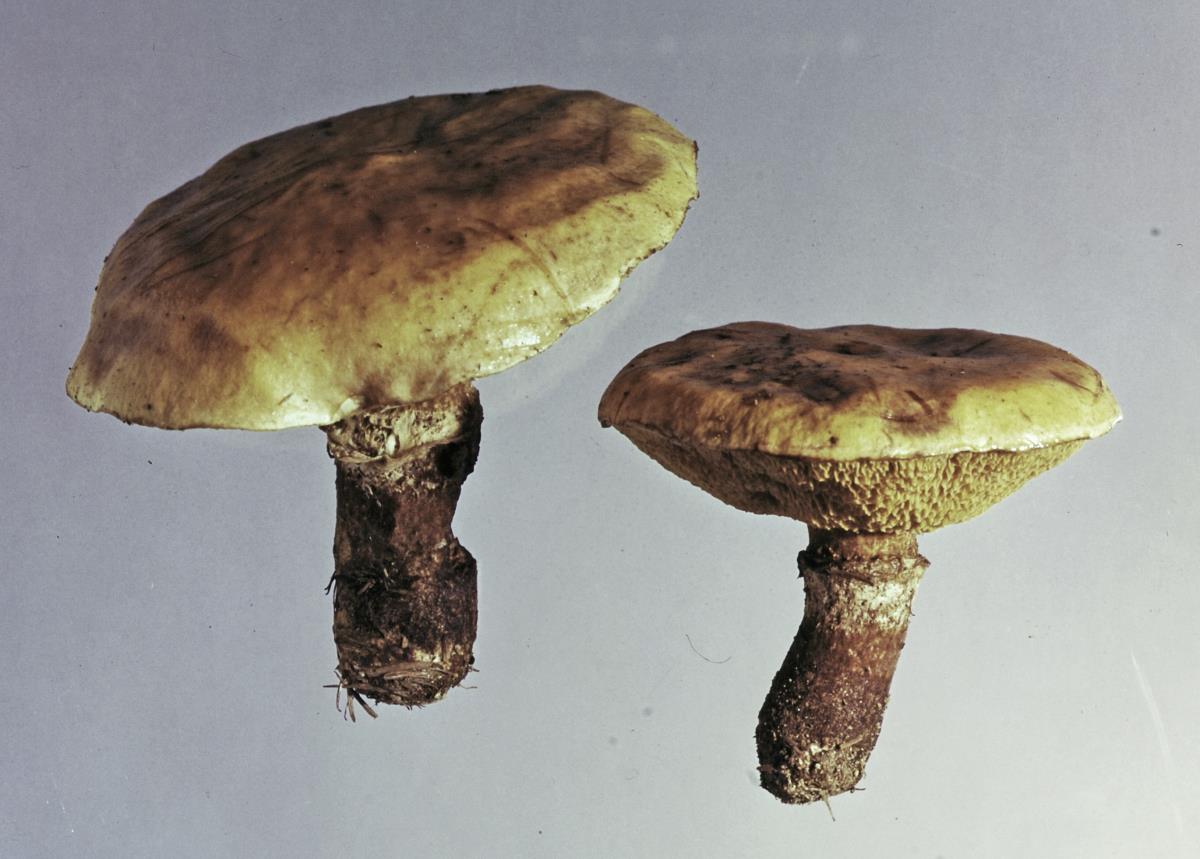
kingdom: Fungi
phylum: Basidiomycota
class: Agaricomycetes
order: Boletales
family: Suillaceae
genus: Suillus
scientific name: Suillus grevillei
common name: Larch bolete
